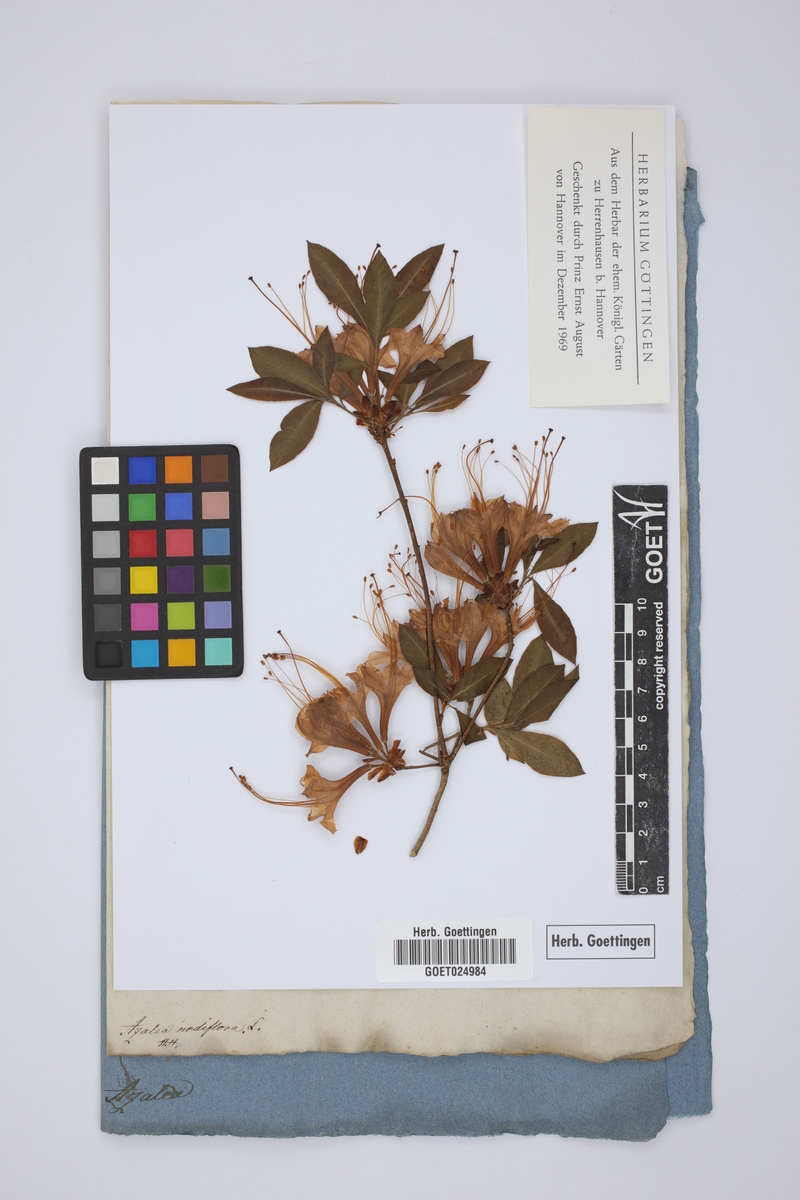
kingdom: Plantae
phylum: Tracheophyta
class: Magnoliopsida
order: Ericales
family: Ericaceae
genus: Rhododendron
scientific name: Rhododendron flammeum
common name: Oconee azalea
